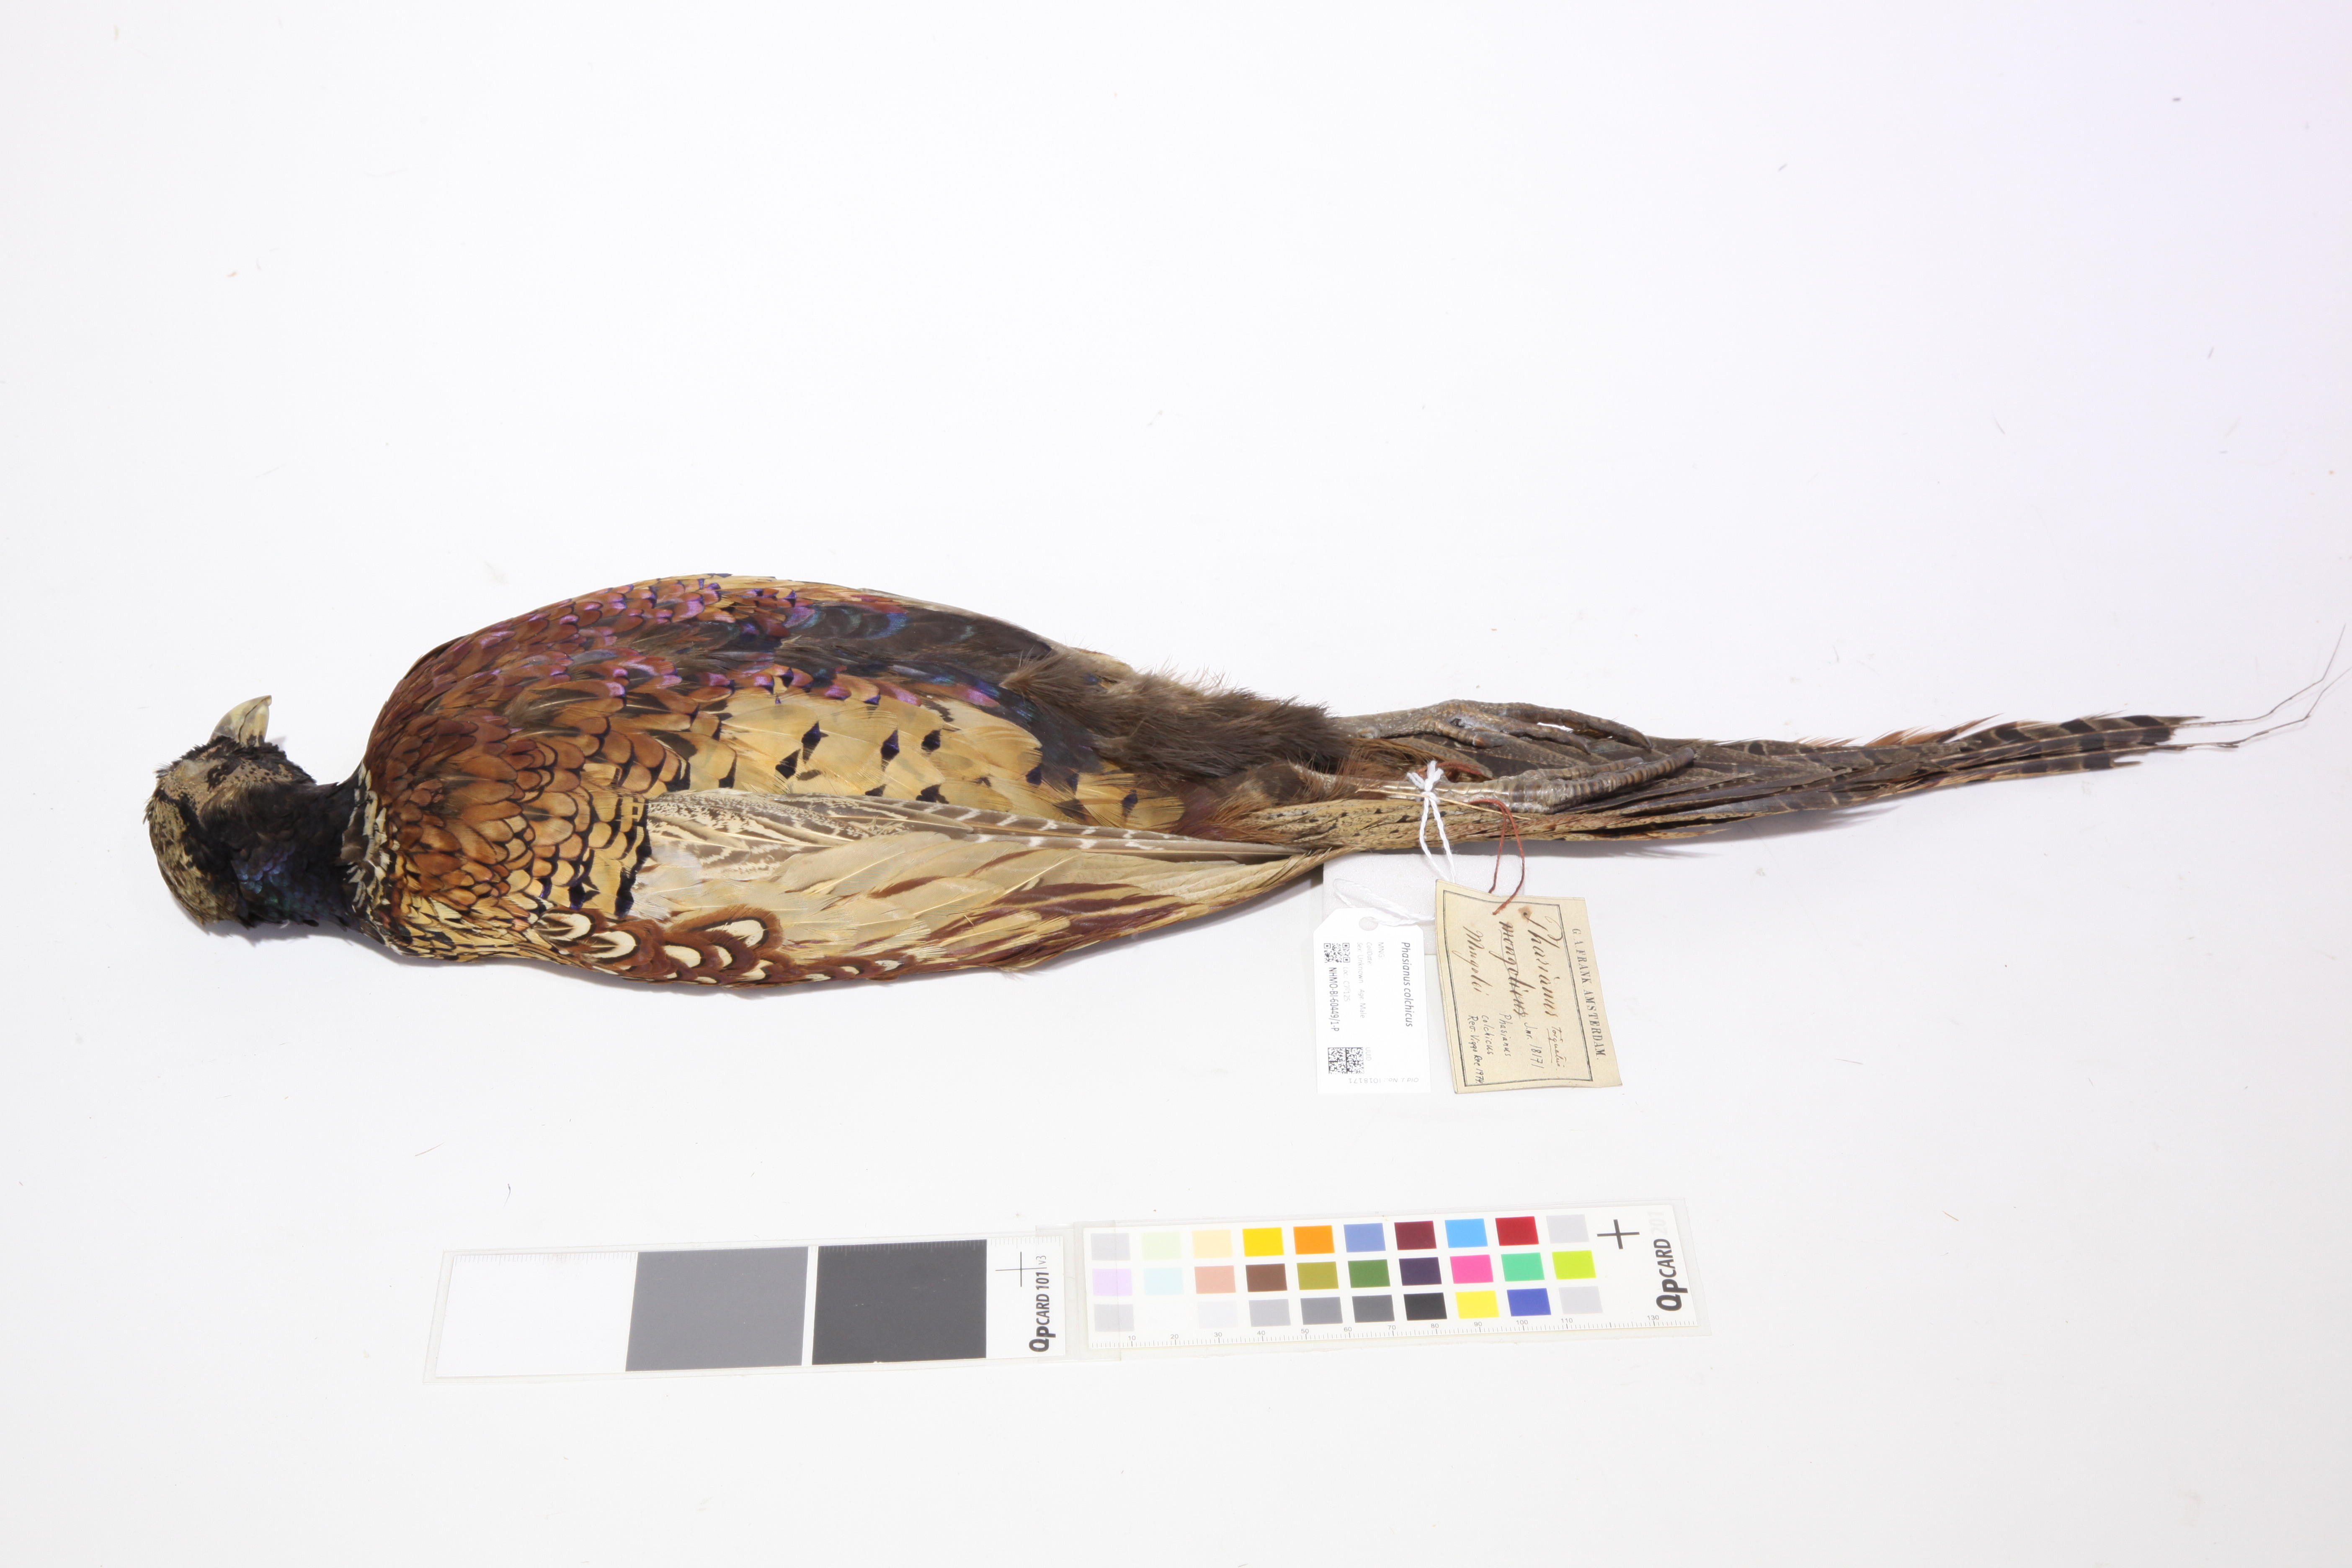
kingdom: Animalia
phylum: Chordata
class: Aves
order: Galliformes
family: Phasianidae
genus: Phasianus
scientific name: Phasianus colchicus
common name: Common pheasant
